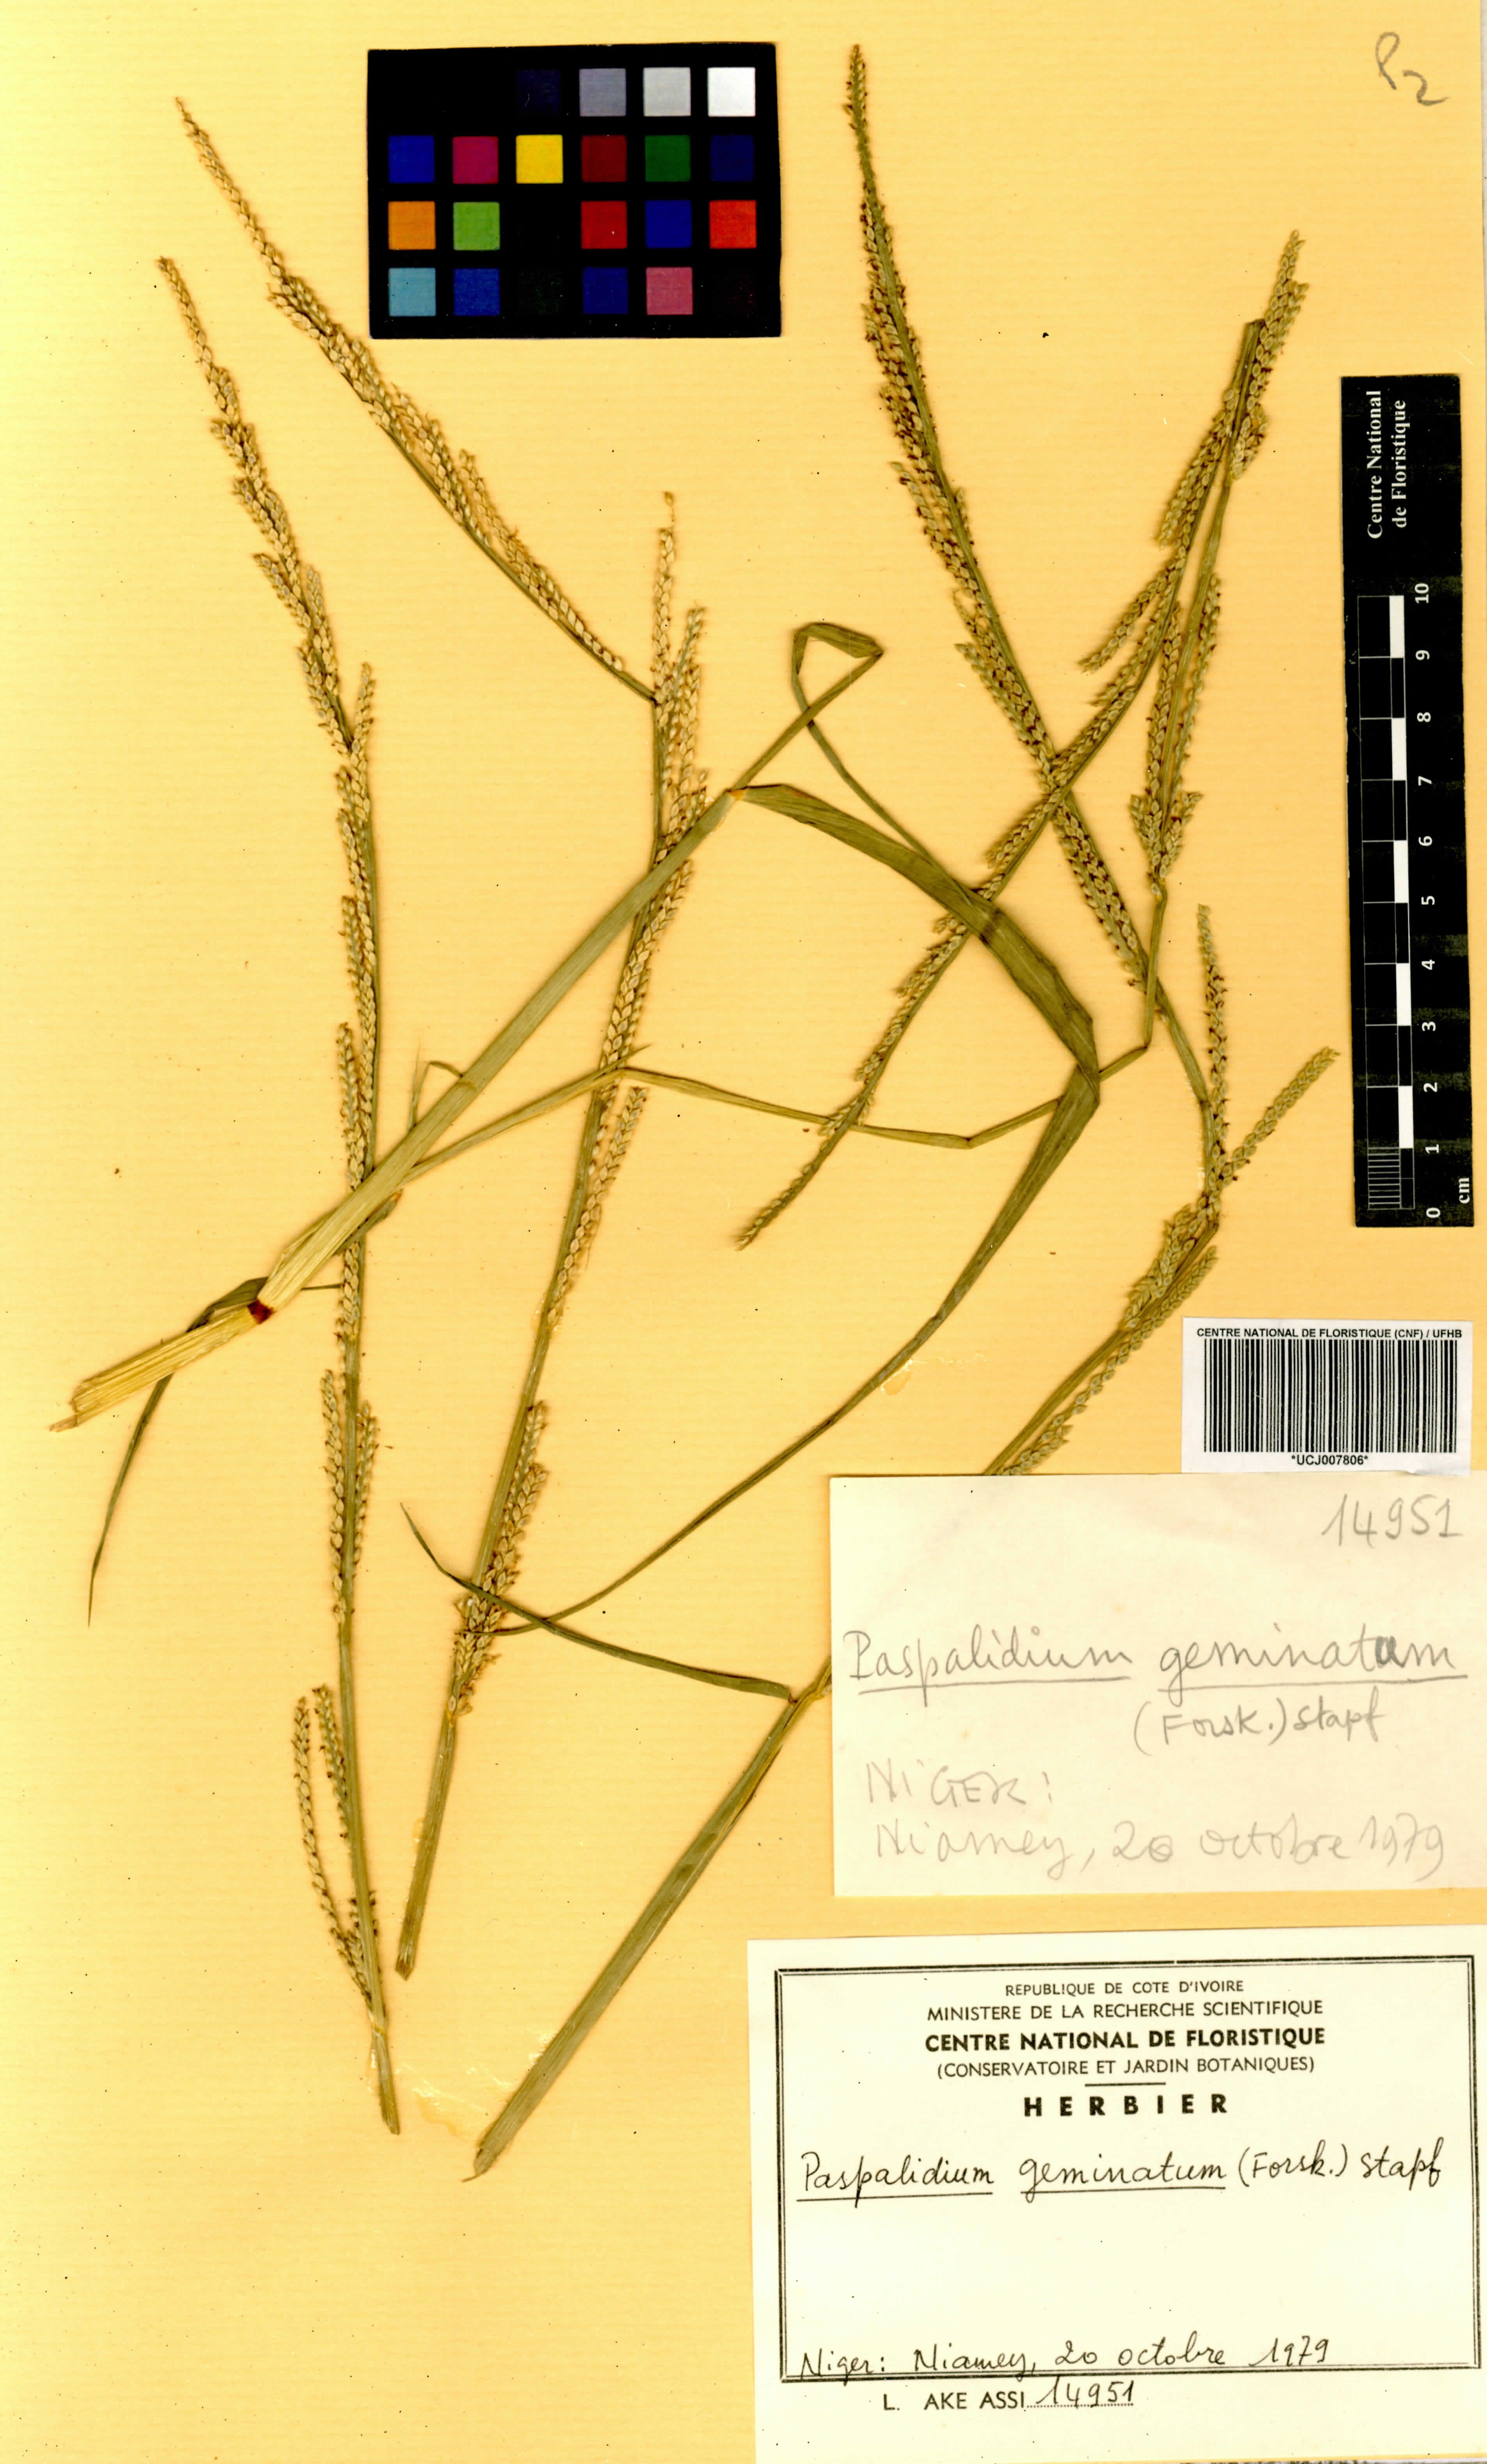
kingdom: Plantae
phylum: Tracheophyta
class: Liliopsida
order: Poales
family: Poaceae
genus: Setaria
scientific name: Setaria geminata
